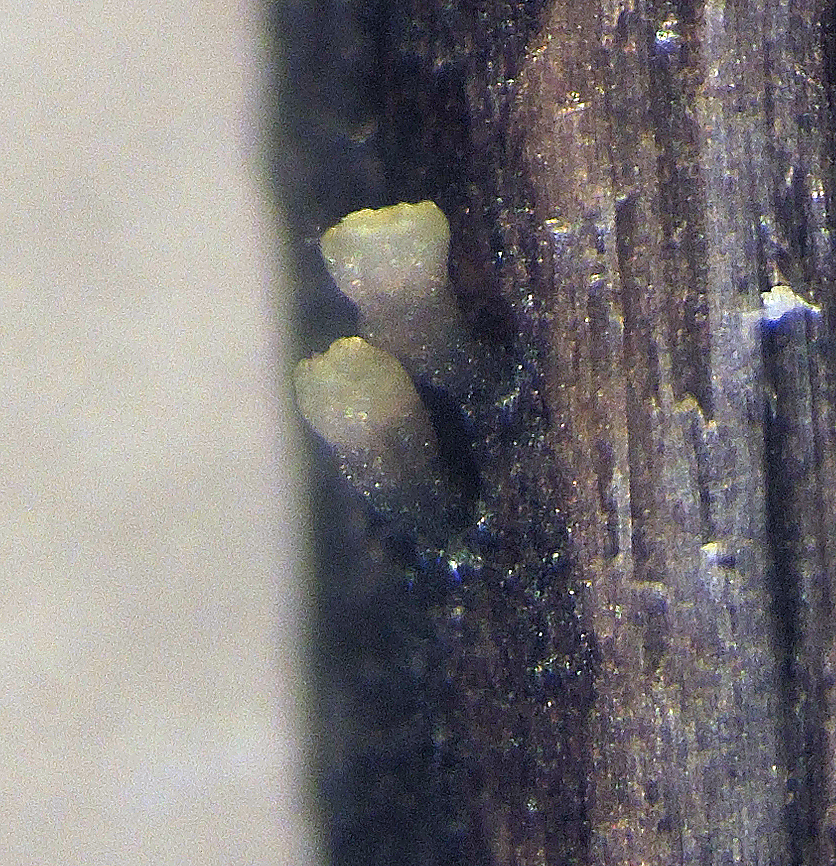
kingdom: Fungi
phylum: Ascomycota
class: Leotiomycetes
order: Helotiales
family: Helotiaceae
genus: Cyathicula
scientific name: Cyathicula subliciformis
